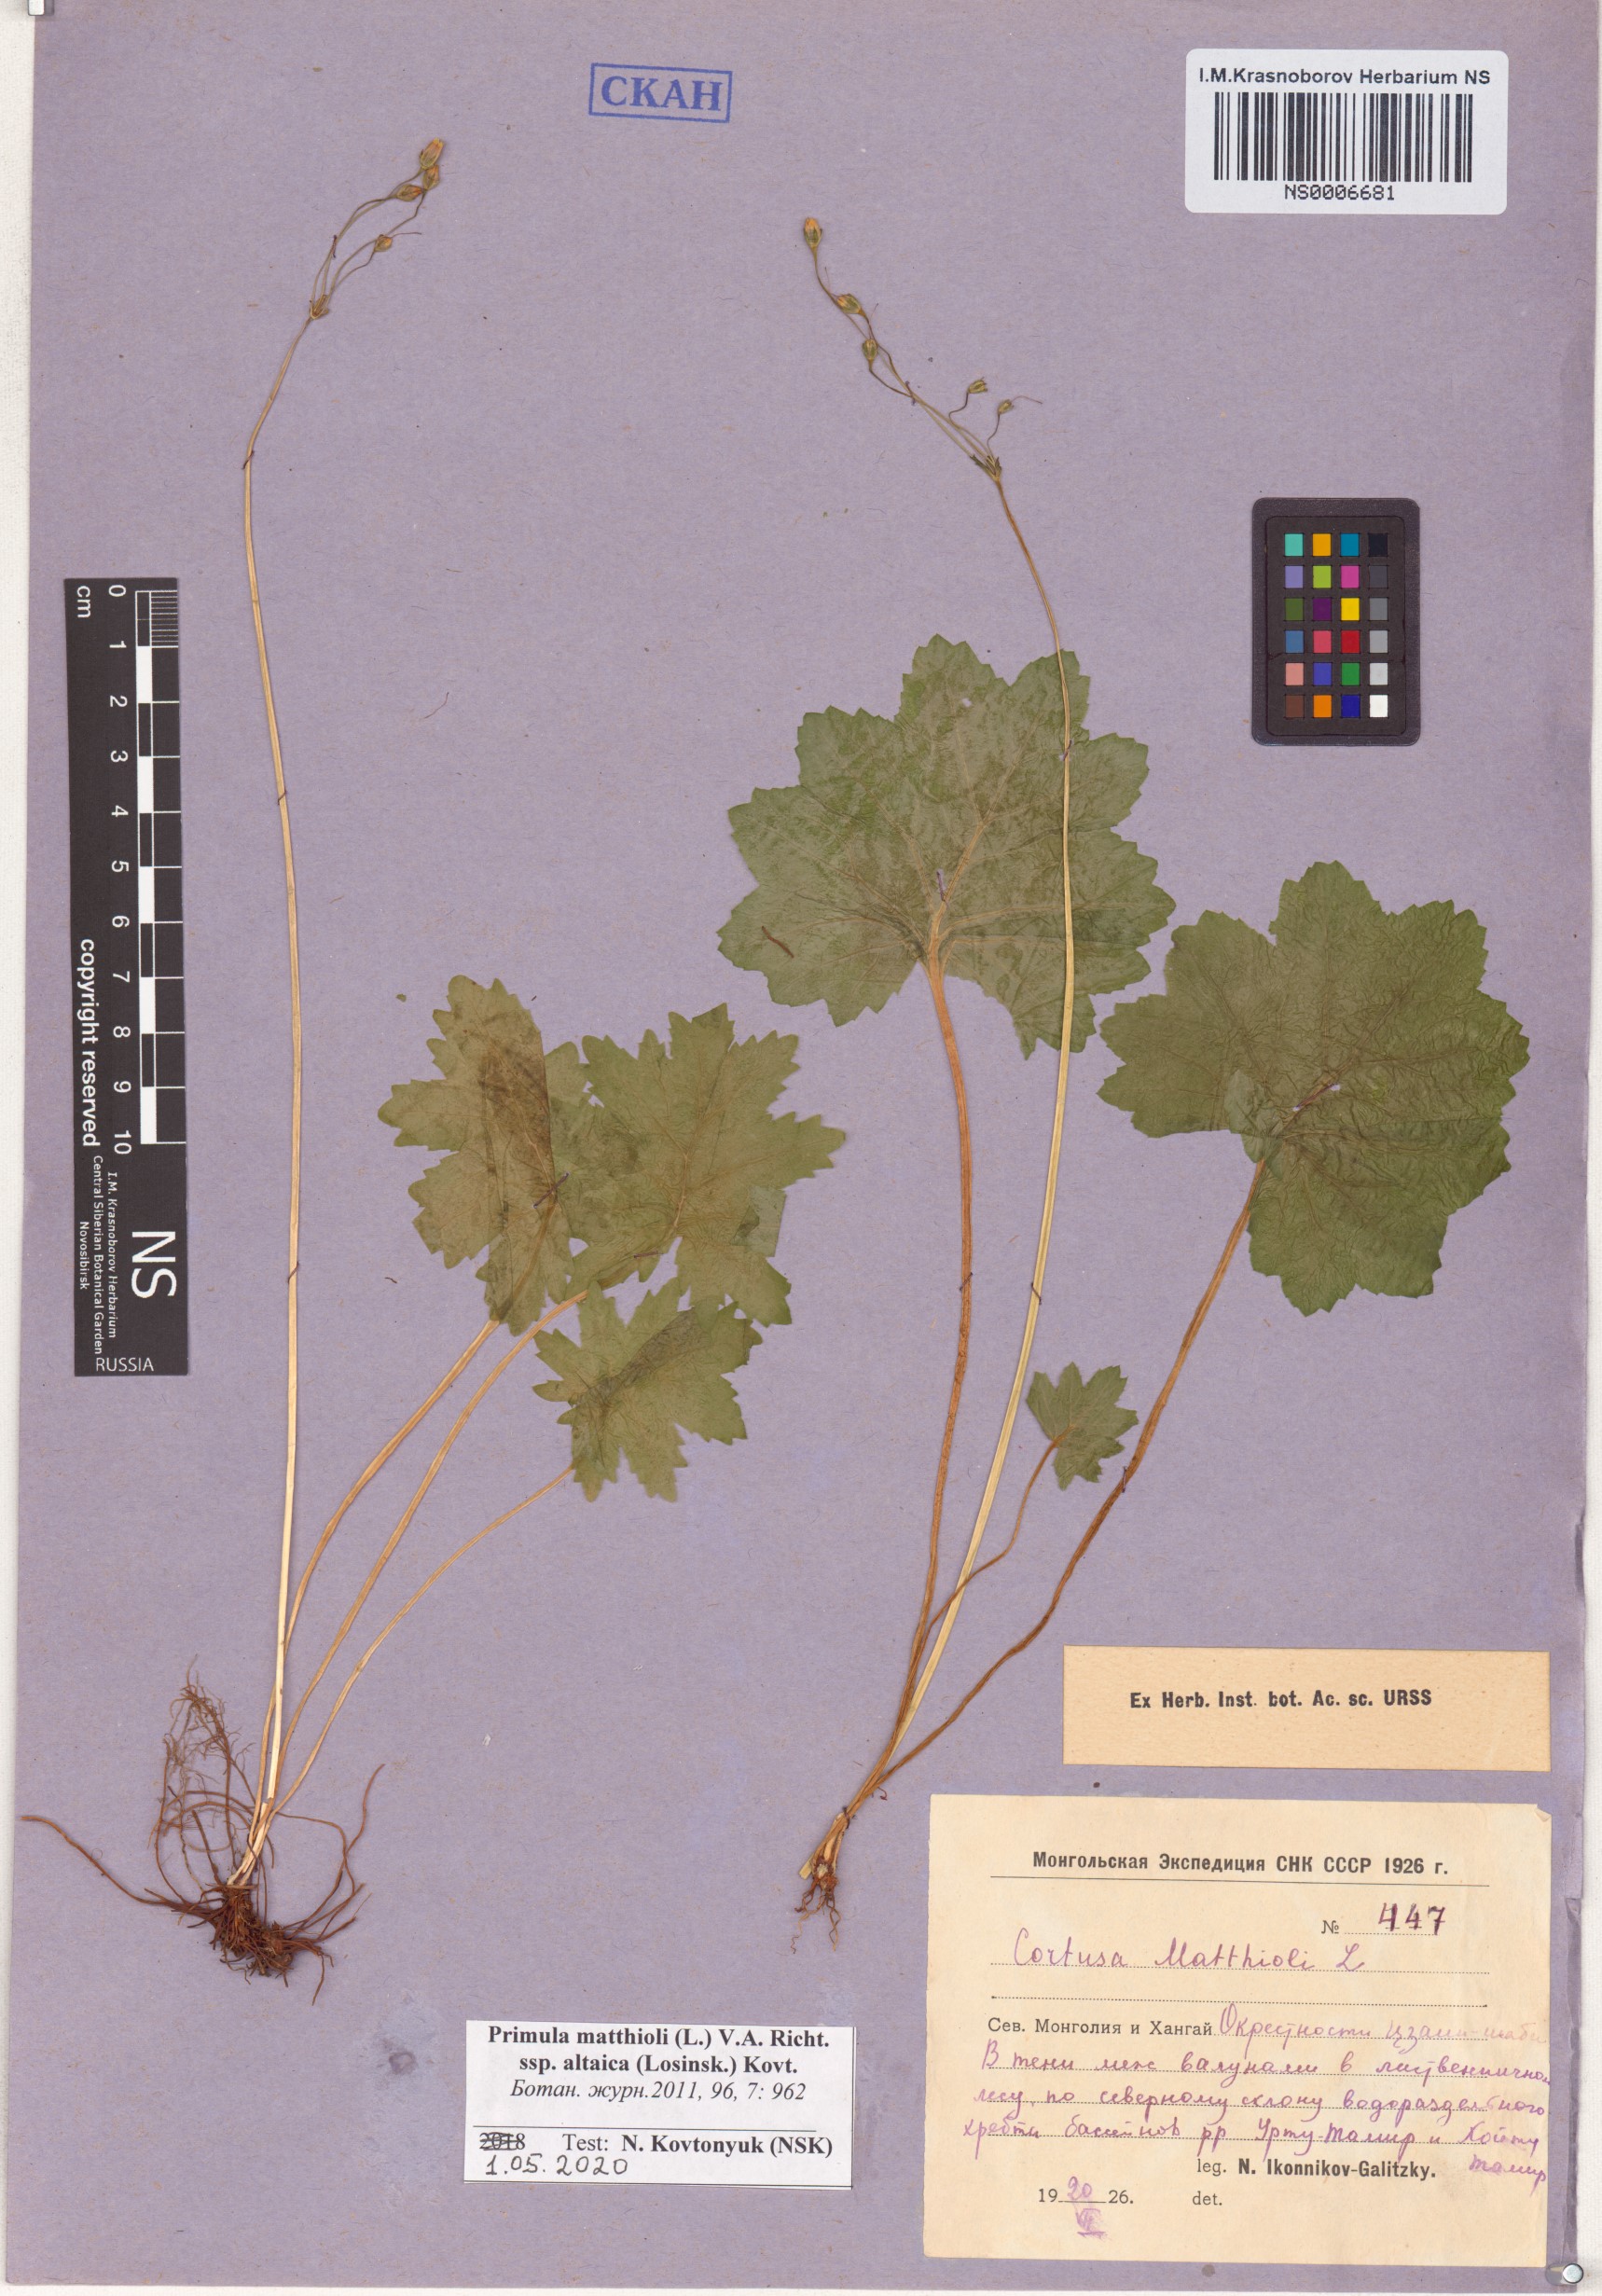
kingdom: Plantae
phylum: Tracheophyta
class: Magnoliopsida
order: Ericales
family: Primulaceae
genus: Primula
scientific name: Primula matthioli
